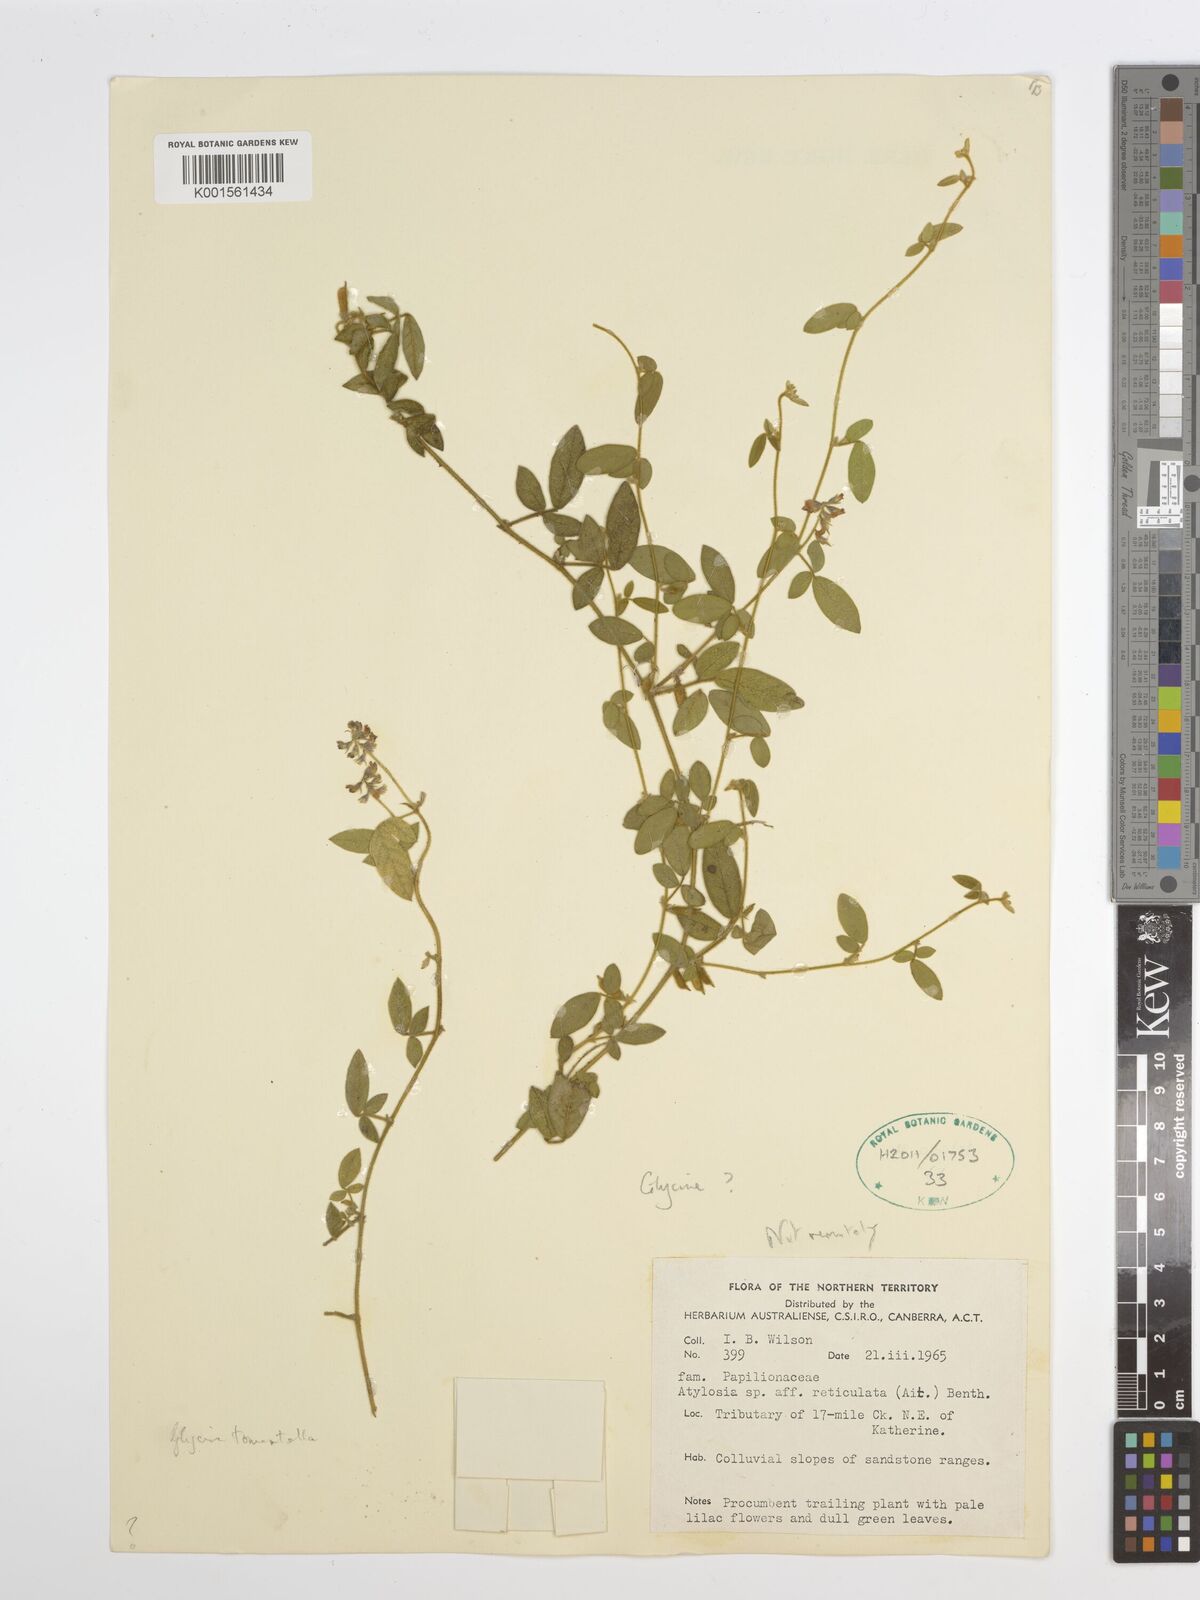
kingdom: Plantae
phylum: Tracheophyta
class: Magnoliopsida
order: Fabales
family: Fabaceae
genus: Glycine
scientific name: Glycine tomentella
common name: Hairy glycine
